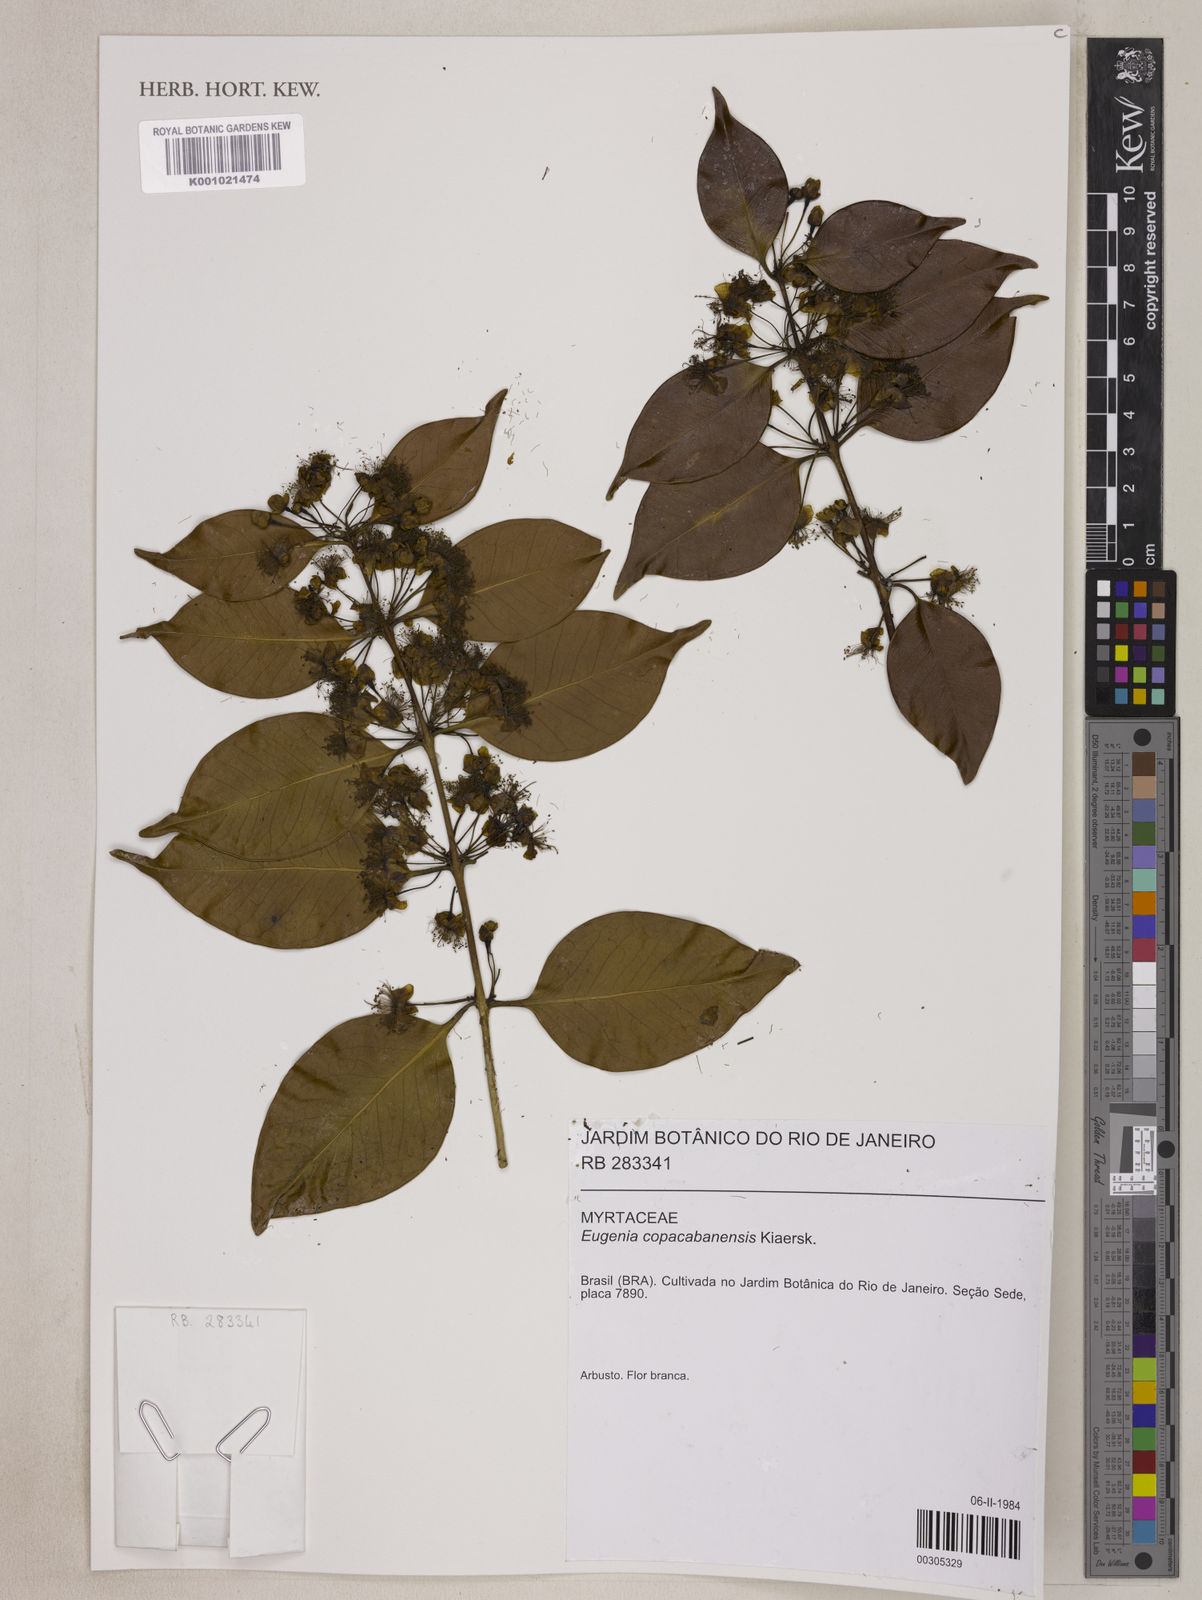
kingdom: Plantae
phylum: Tracheophyta
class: Magnoliopsida
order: Myrtales
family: Myrtaceae
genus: Eugenia
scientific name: Eugenia copacabanensis
